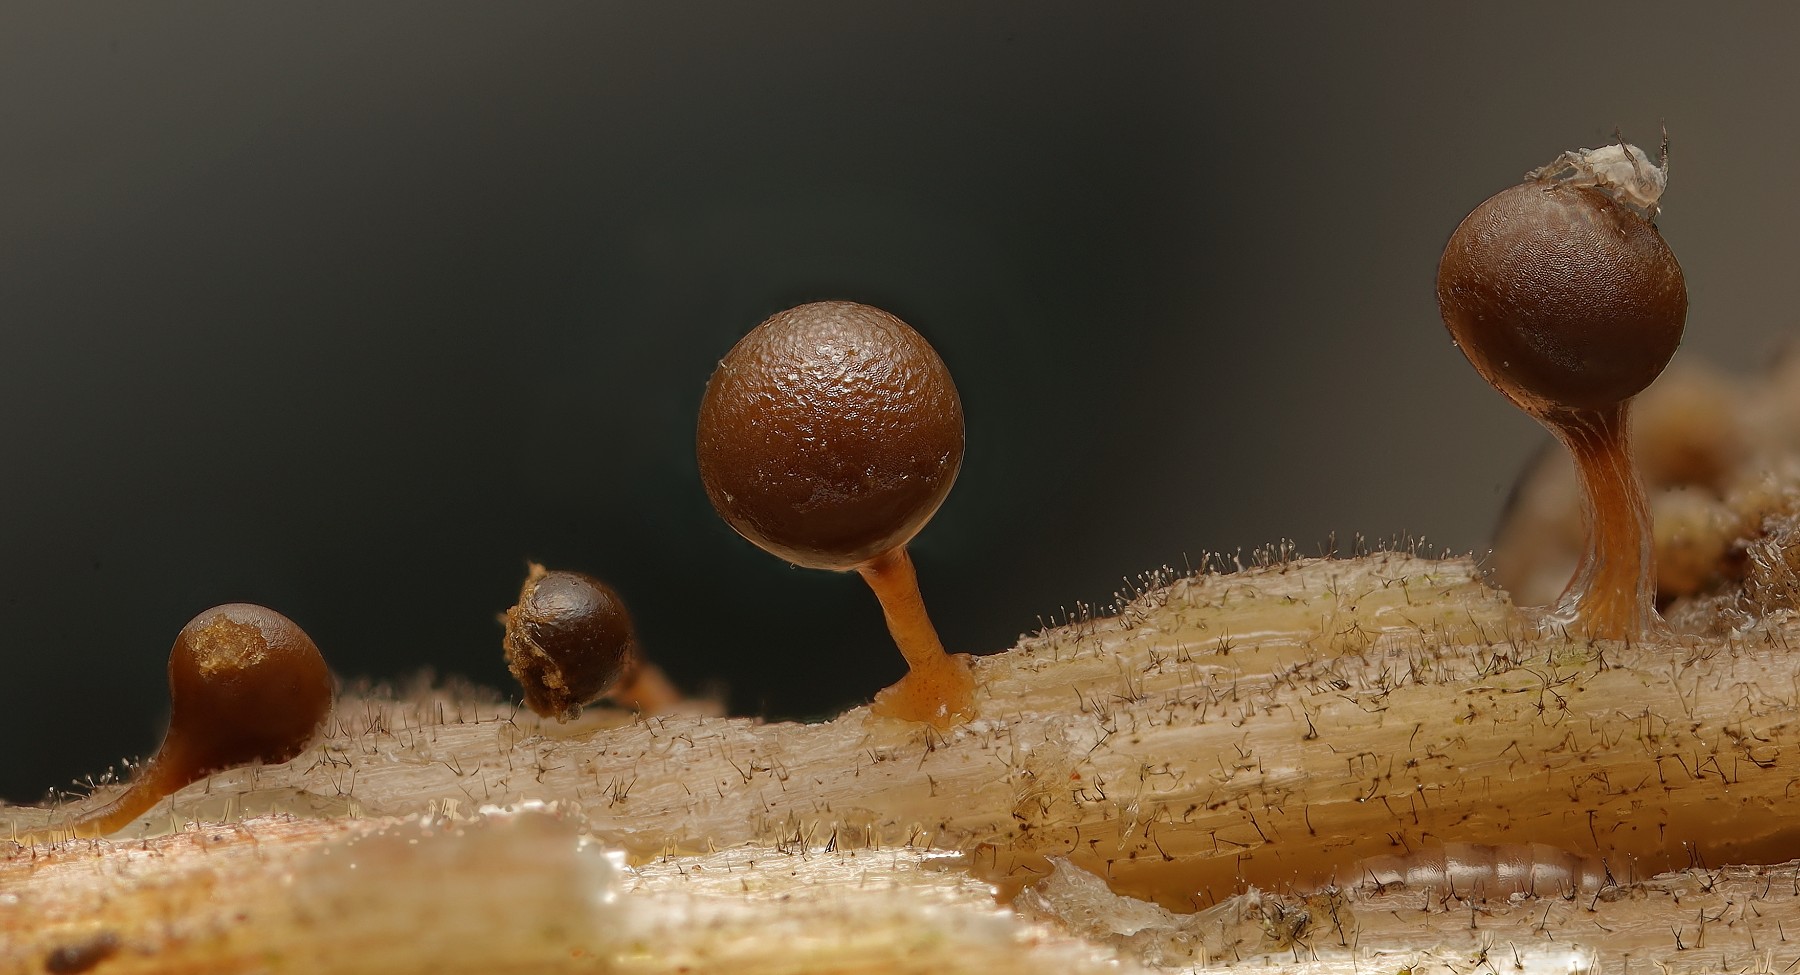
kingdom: Protozoa
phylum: Mycetozoa
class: Myxomycetes
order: Trichiales
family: Trichiaceae
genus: Trichia
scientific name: Trichia
